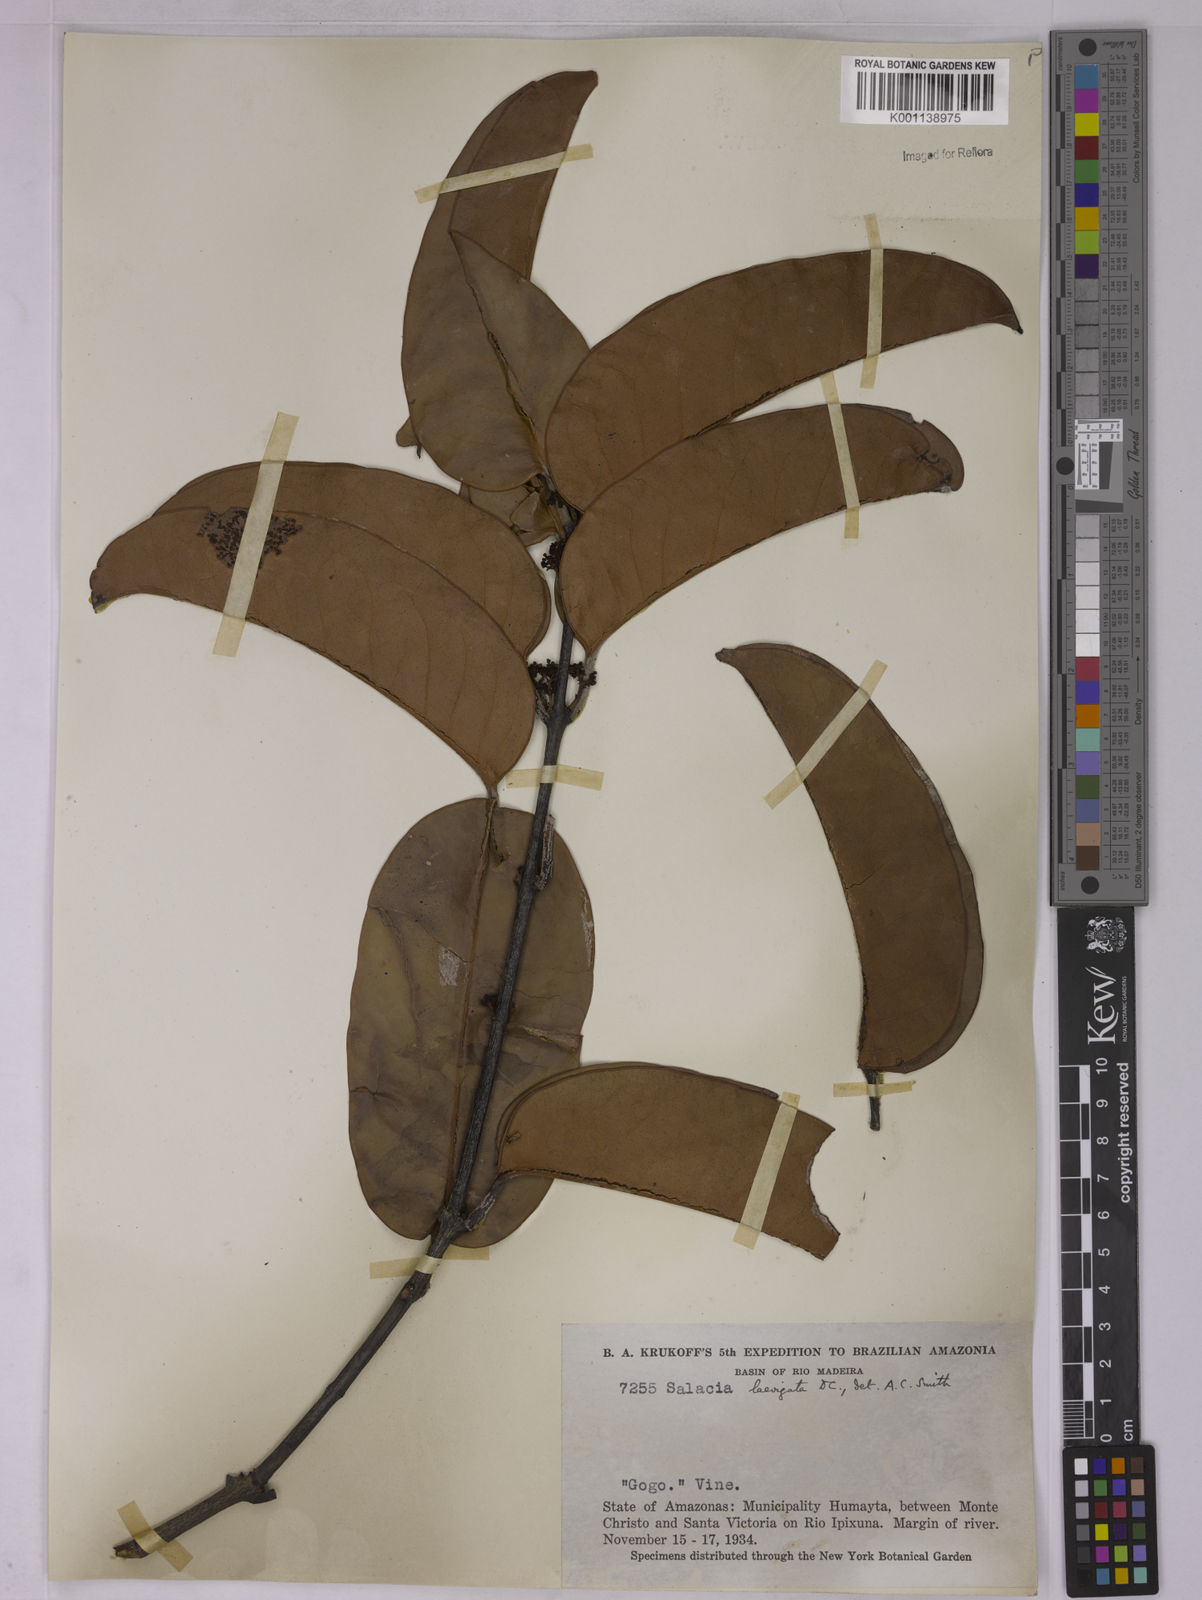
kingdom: Plantae
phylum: Tracheophyta
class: Magnoliopsida
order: Celastrales
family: Celastraceae
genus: Peritassa
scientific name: Peritassa laevigata
